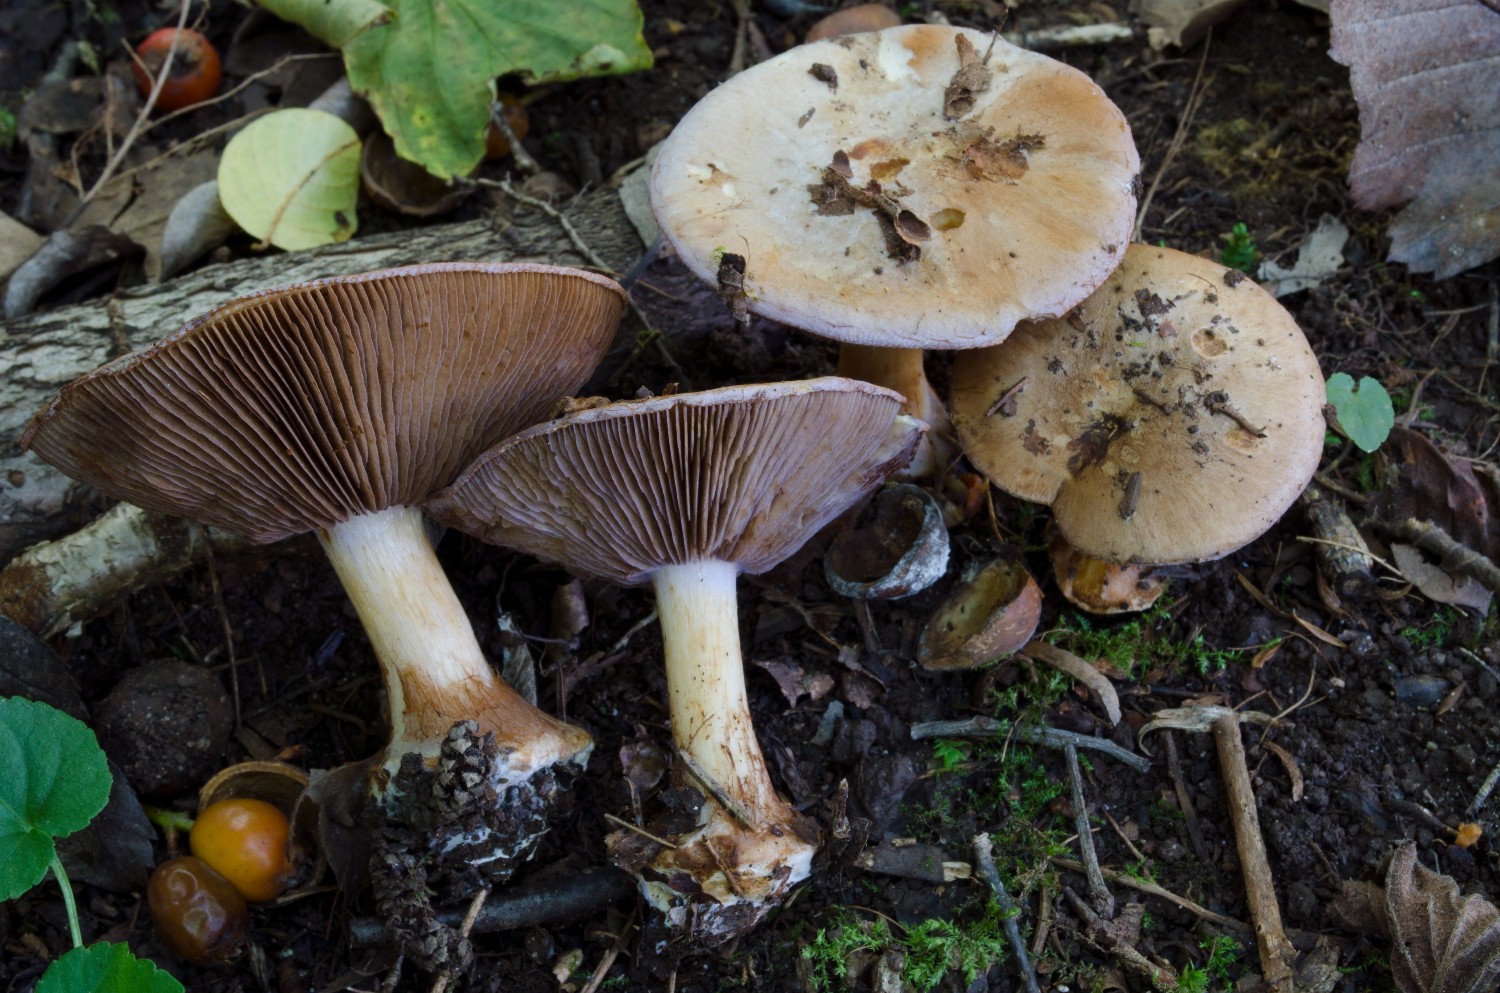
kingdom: Fungi
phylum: Basidiomycota
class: Agaricomycetes
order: Agaricales
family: Cortinariaceae
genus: Cortinarius
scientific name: Cortinarius ionodactylus
